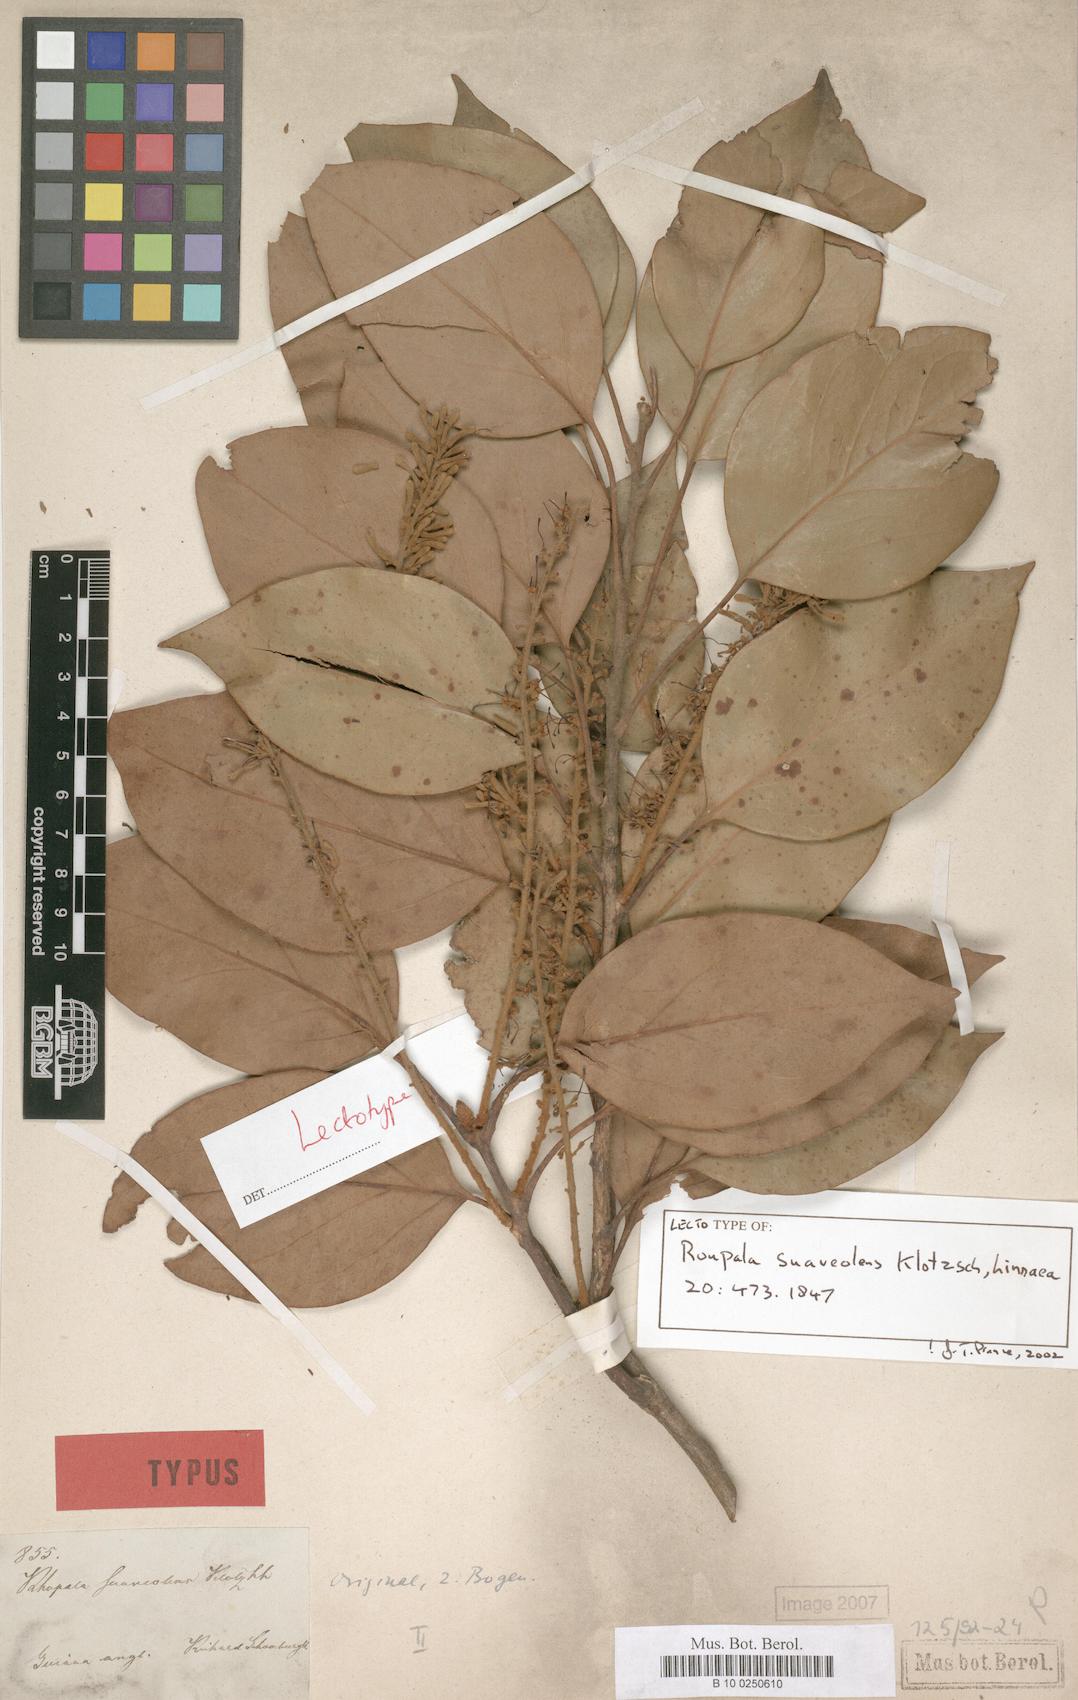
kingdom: Plantae
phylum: Tracheophyta
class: Magnoliopsida
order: Proteales
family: Proteaceae
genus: Roupala
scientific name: Roupala suaveolens
